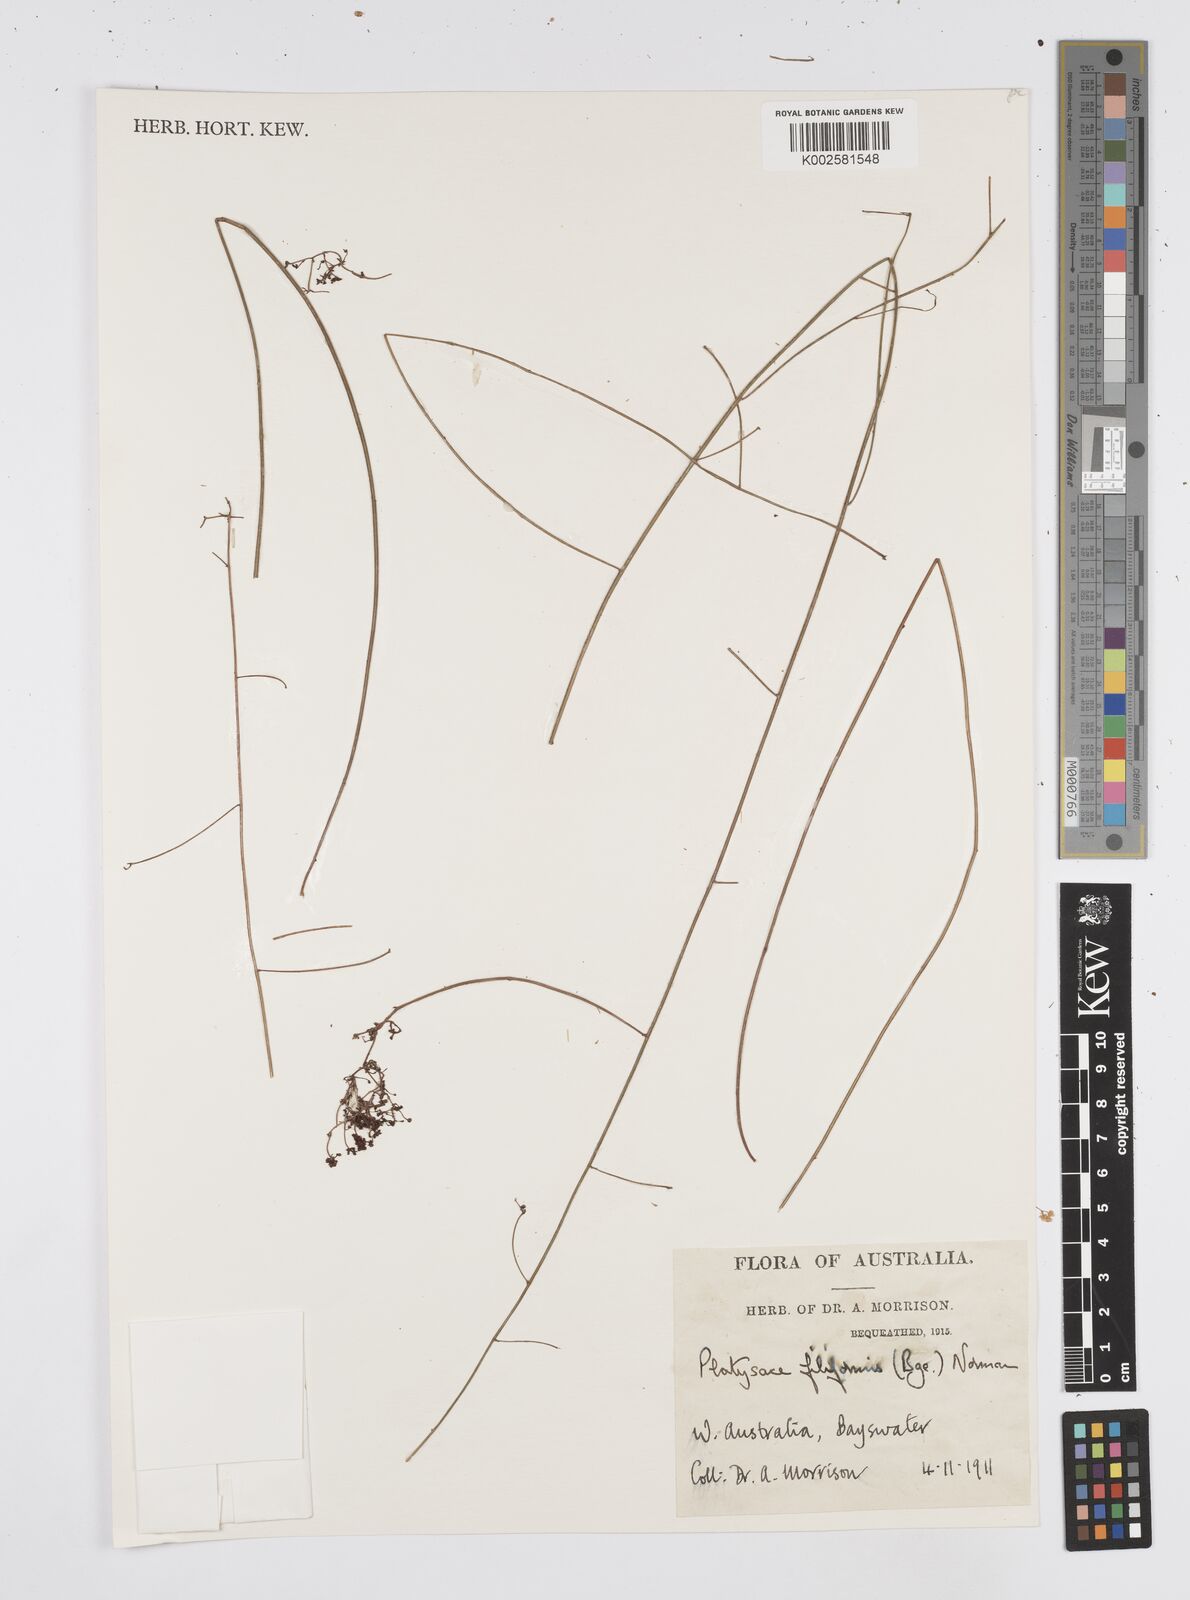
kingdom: Plantae
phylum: Tracheophyta
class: Magnoliopsida
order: Apiales
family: Apiaceae
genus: Centella
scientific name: Centella
